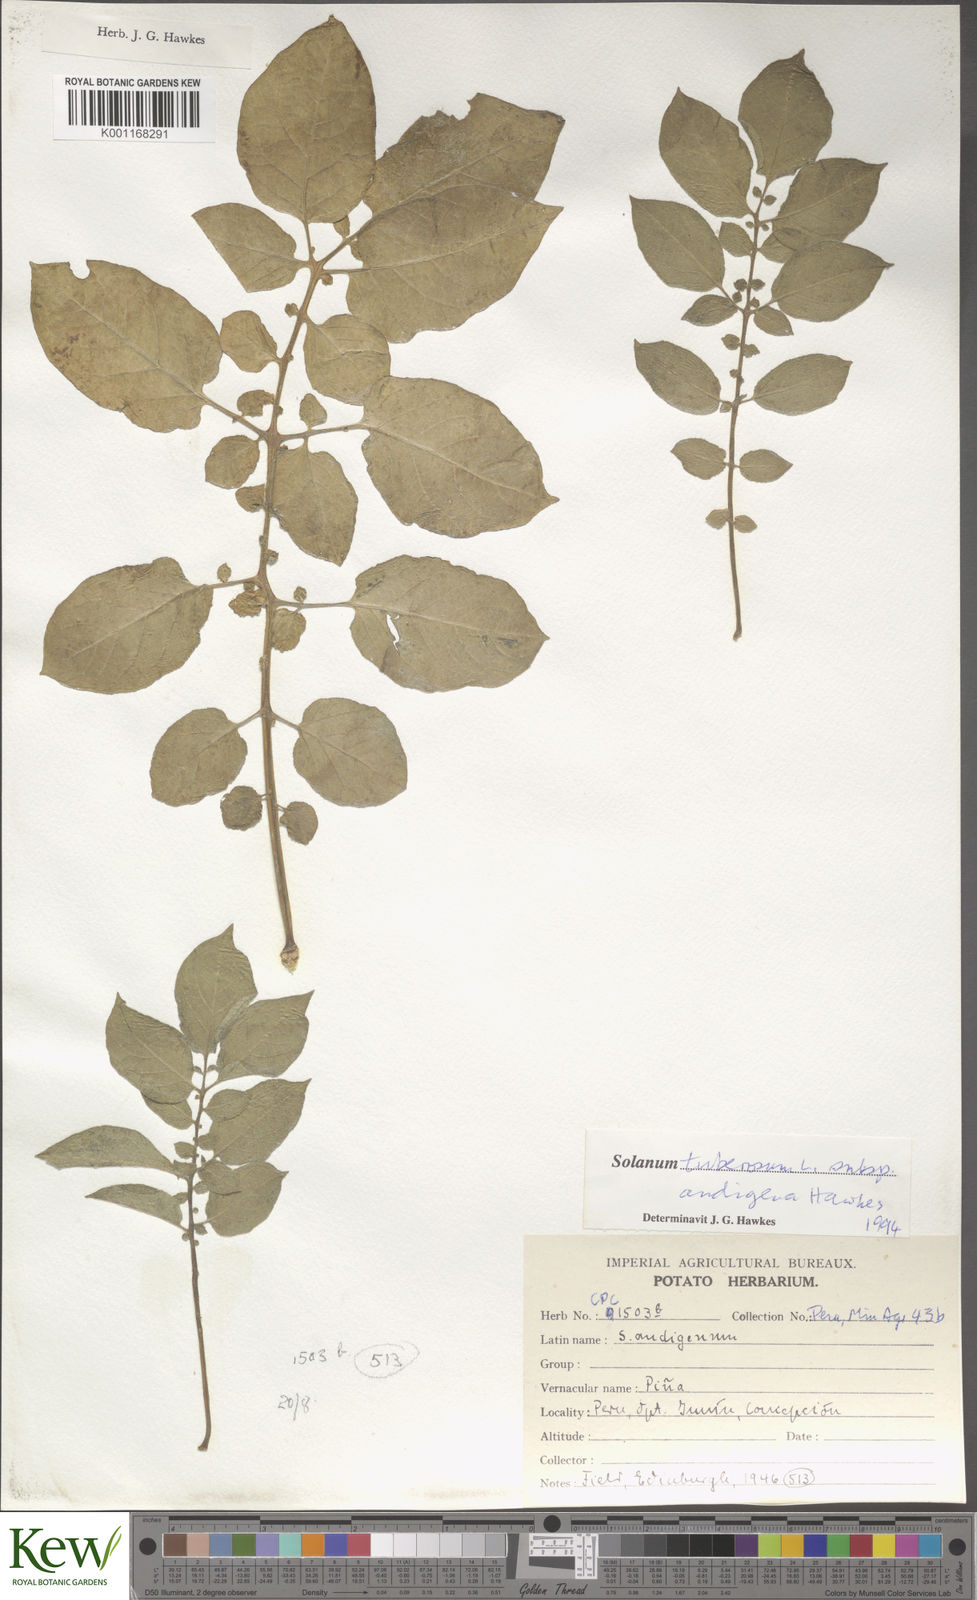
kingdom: Plantae
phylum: Tracheophyta
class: Magnoliopsida
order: Solanales
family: Solanaceae
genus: Solanum
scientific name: Solanum tuberosum
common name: Potato
